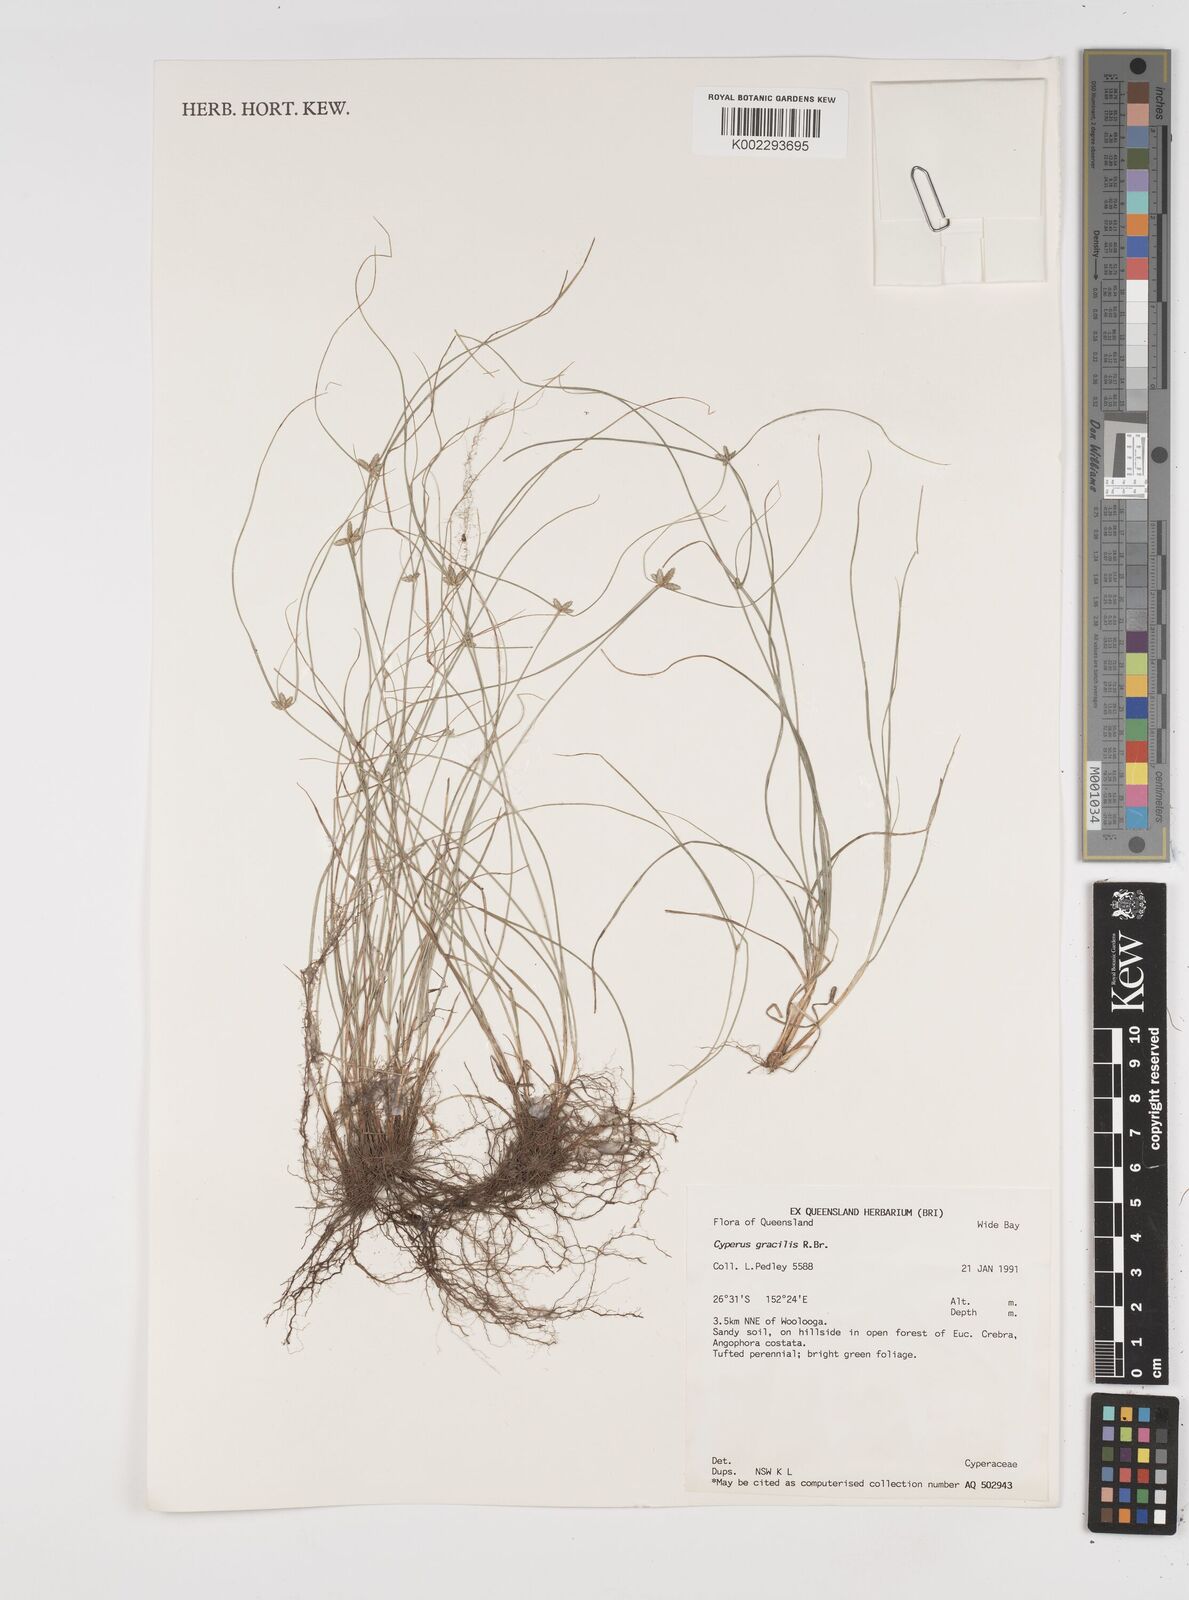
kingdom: Plantae
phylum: Tracheophyta
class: Liliopsida
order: Poales
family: Cyperaceae
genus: Cyperus
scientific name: Cyperus enervis
